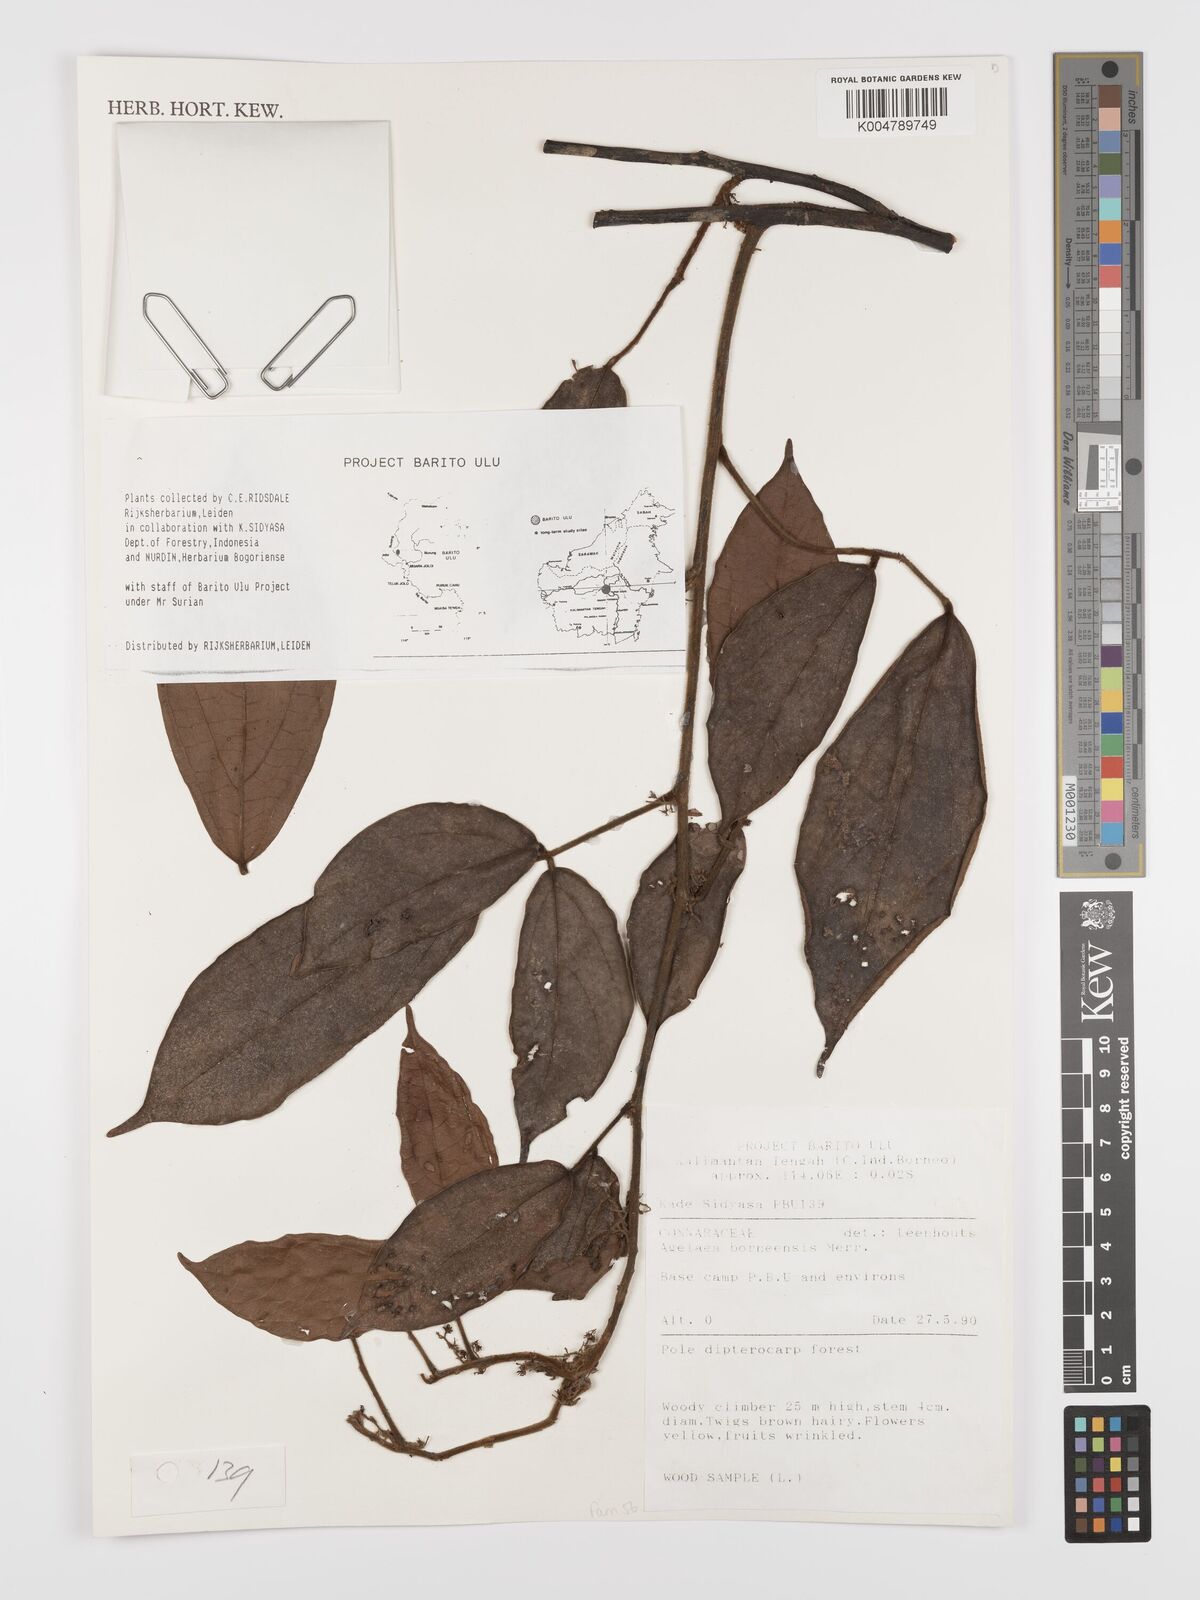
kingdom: Plantae
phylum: Tracheophyta
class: Magnoliopsida
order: Oxalidales
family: Connaraceae
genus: Agelaea
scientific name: Agelaea borneensis
